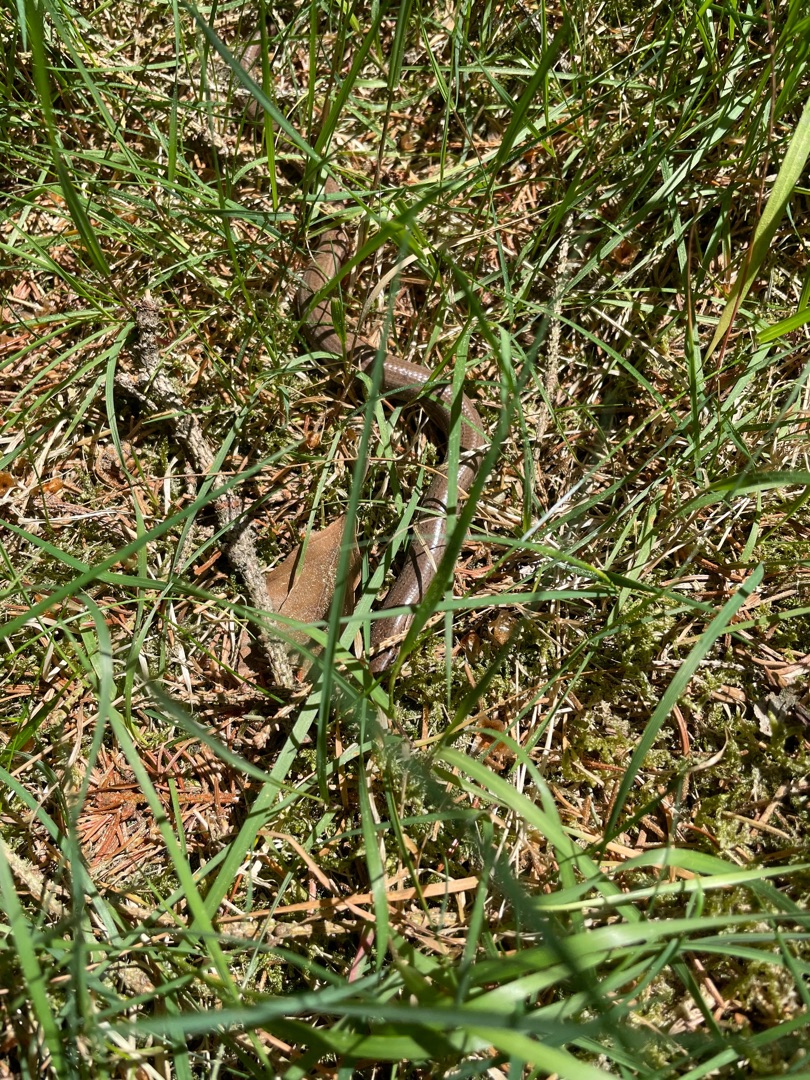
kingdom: Animalia
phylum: Chordata
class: Squamata
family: Anguidae
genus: Anguis
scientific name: Anguis fragilis
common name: Stålorm
